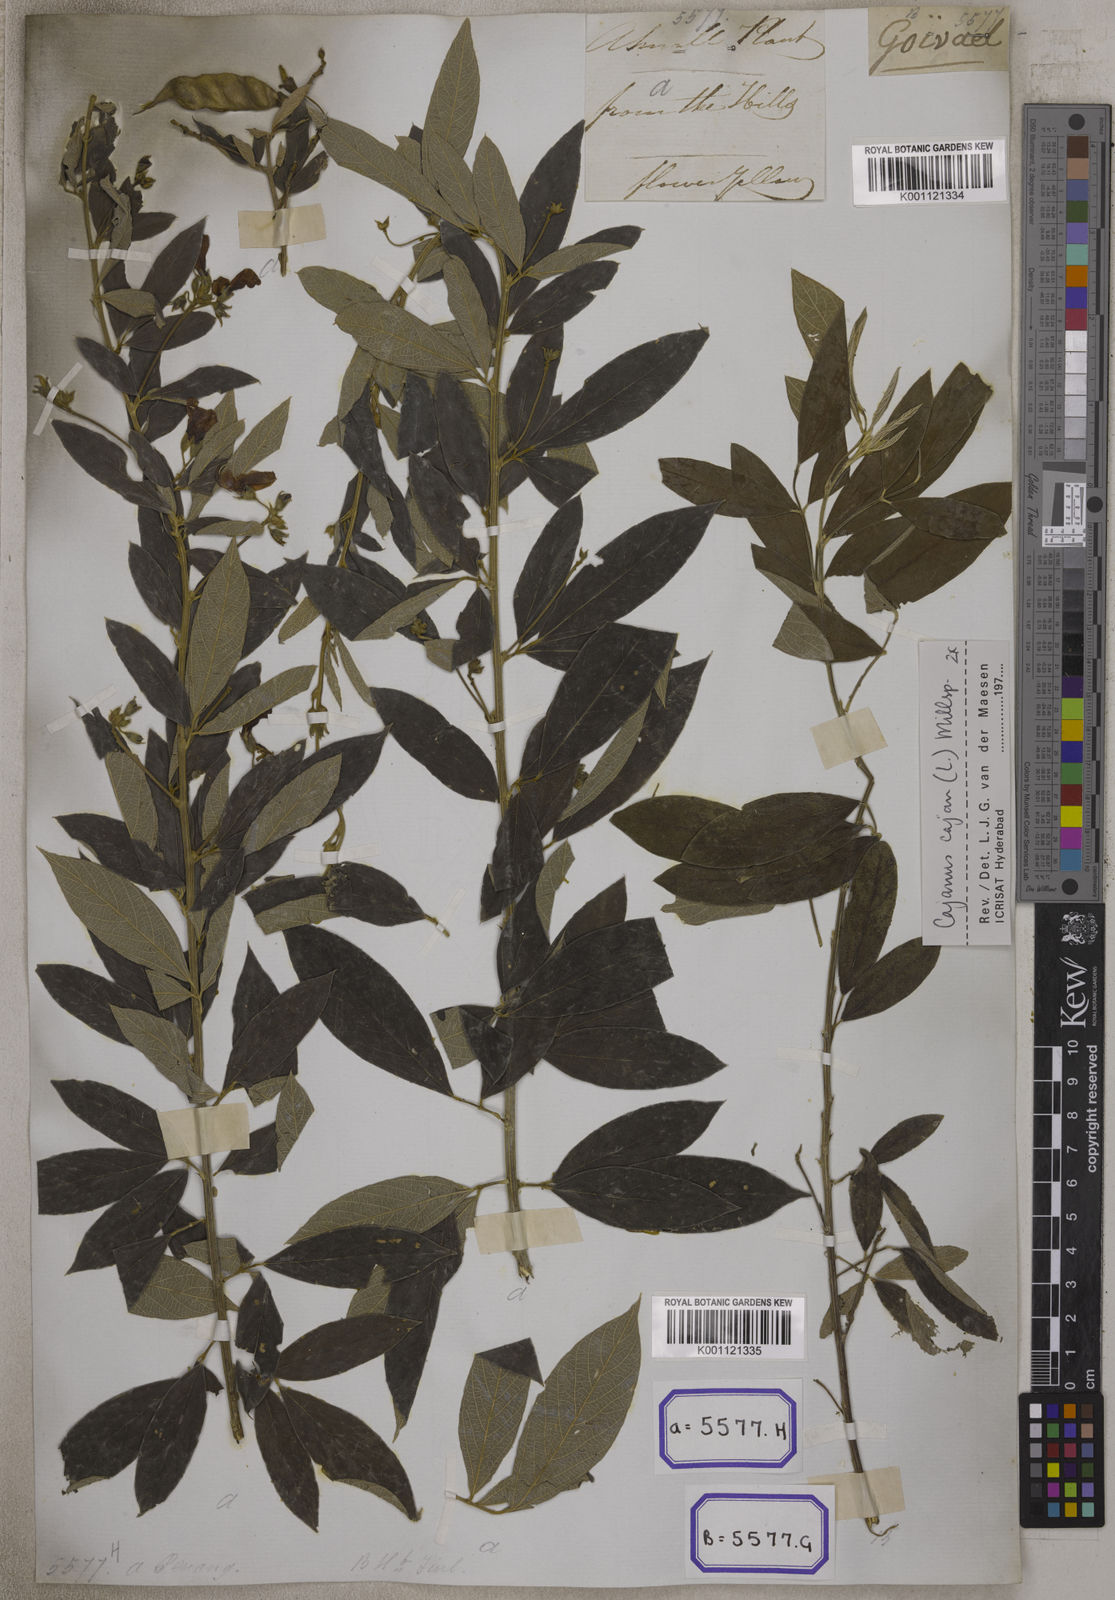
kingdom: Plantae
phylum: Tracheophyta
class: Magnoliopsida
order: Fabales
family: Fabaceae
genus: Cajanus
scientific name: Cajanus cajan
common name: Pigeonpea
